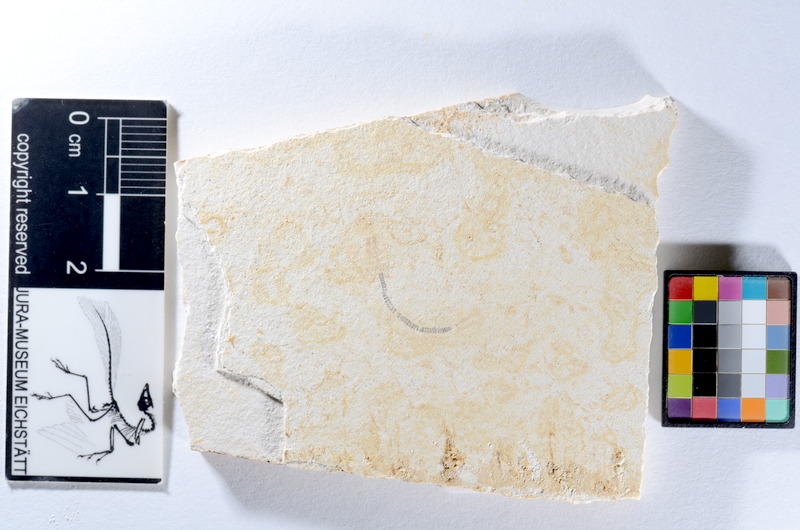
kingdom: Animalia
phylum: Chordata
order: Salmoniformes
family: Orthogonikleithridae
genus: Orthogonikleithrus
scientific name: Orthogonikleithrus hoelli
